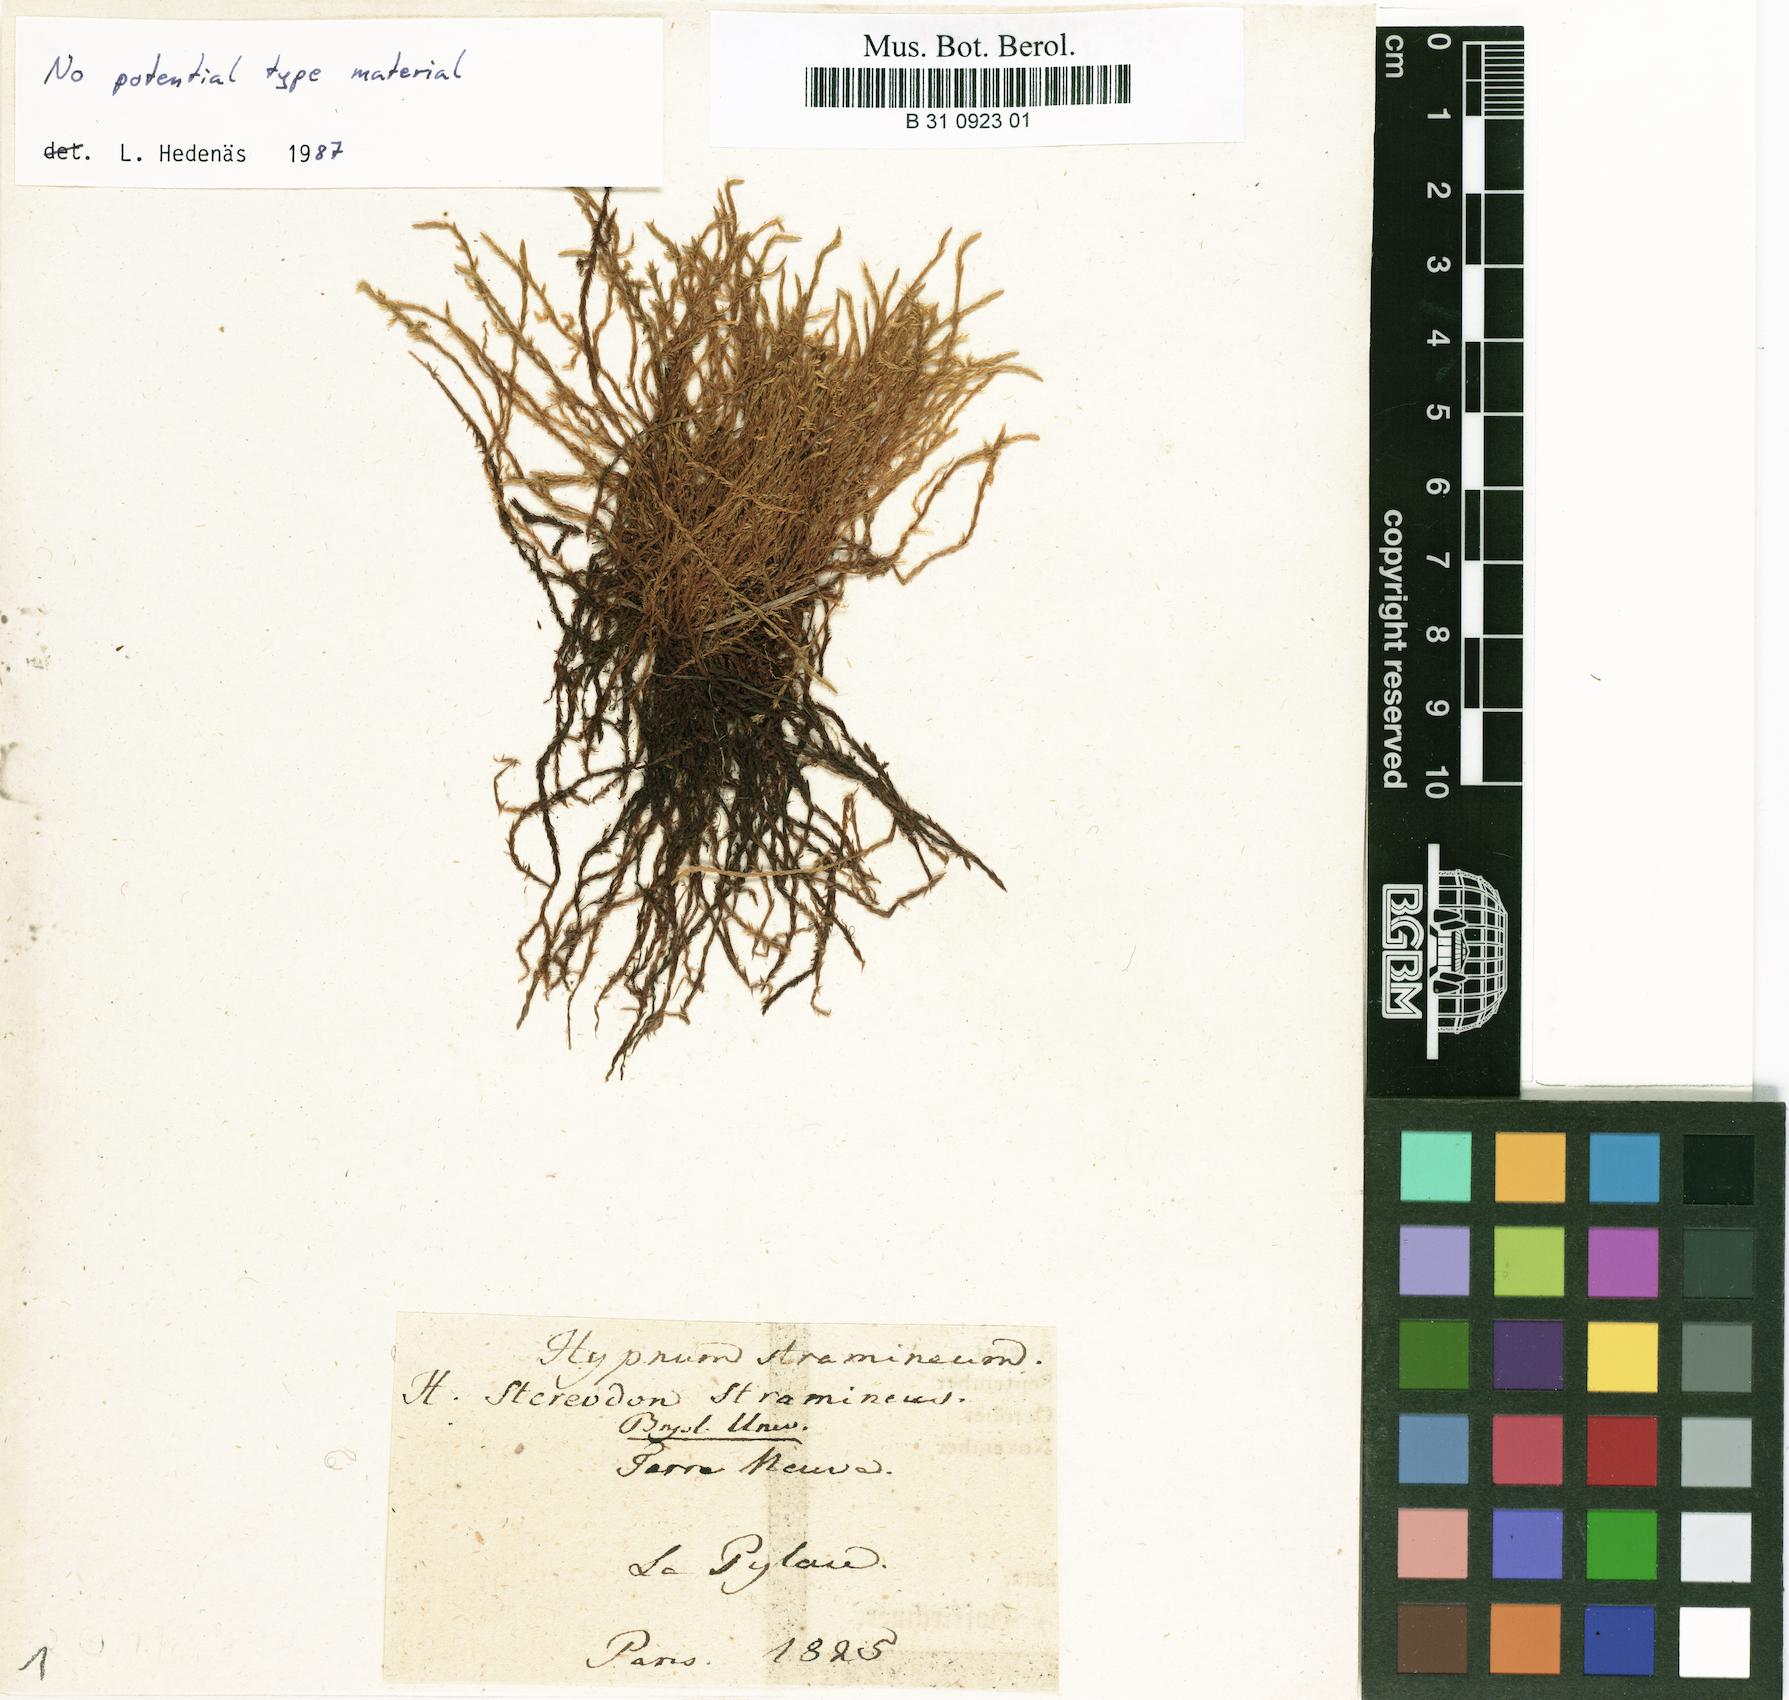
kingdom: Plantae
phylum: Bryophyta
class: Bryopsida
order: Hypnales
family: Calliergonaceae
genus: Straminergon
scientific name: Straminergon stramineum
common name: Straw moss
